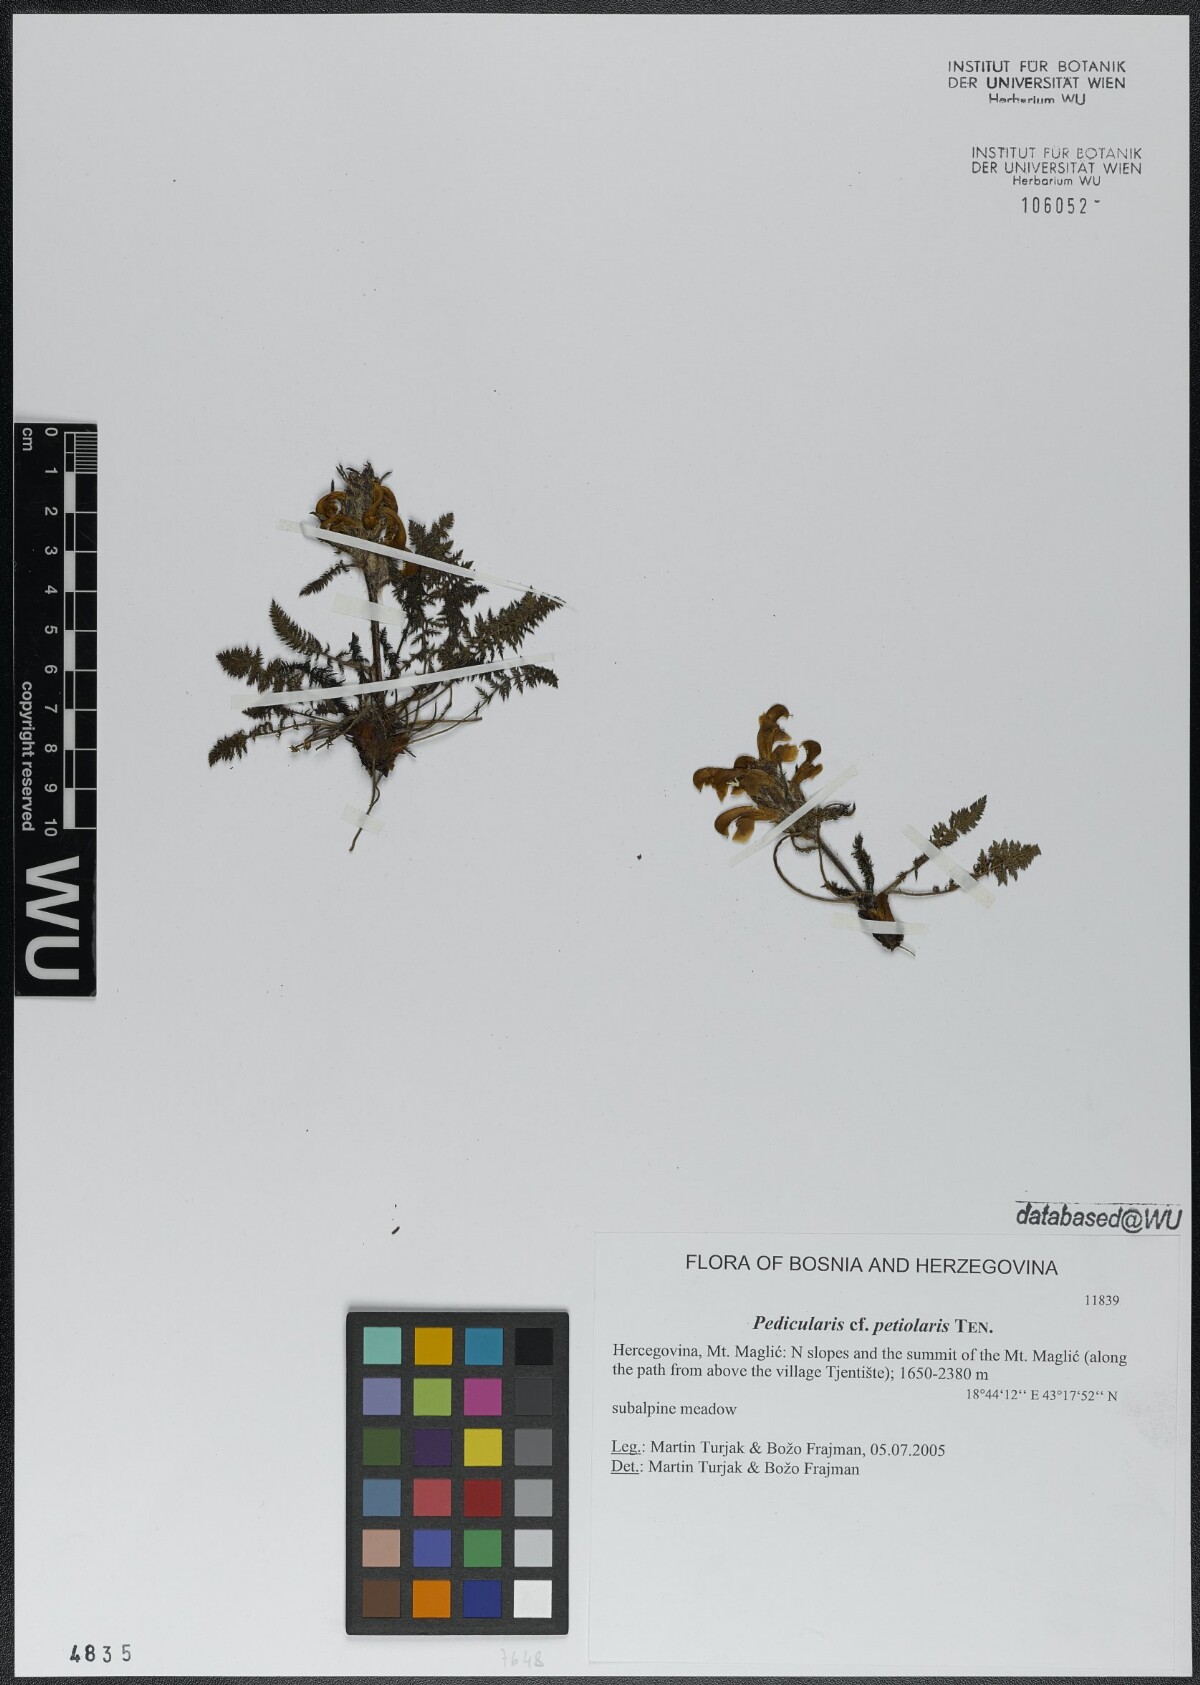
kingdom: Plantae
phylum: Tracheophyta
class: Magnoliopsida
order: Lamiales
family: Orobanchaceae
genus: Pedicularis
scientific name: Pedicularis petiolaris
